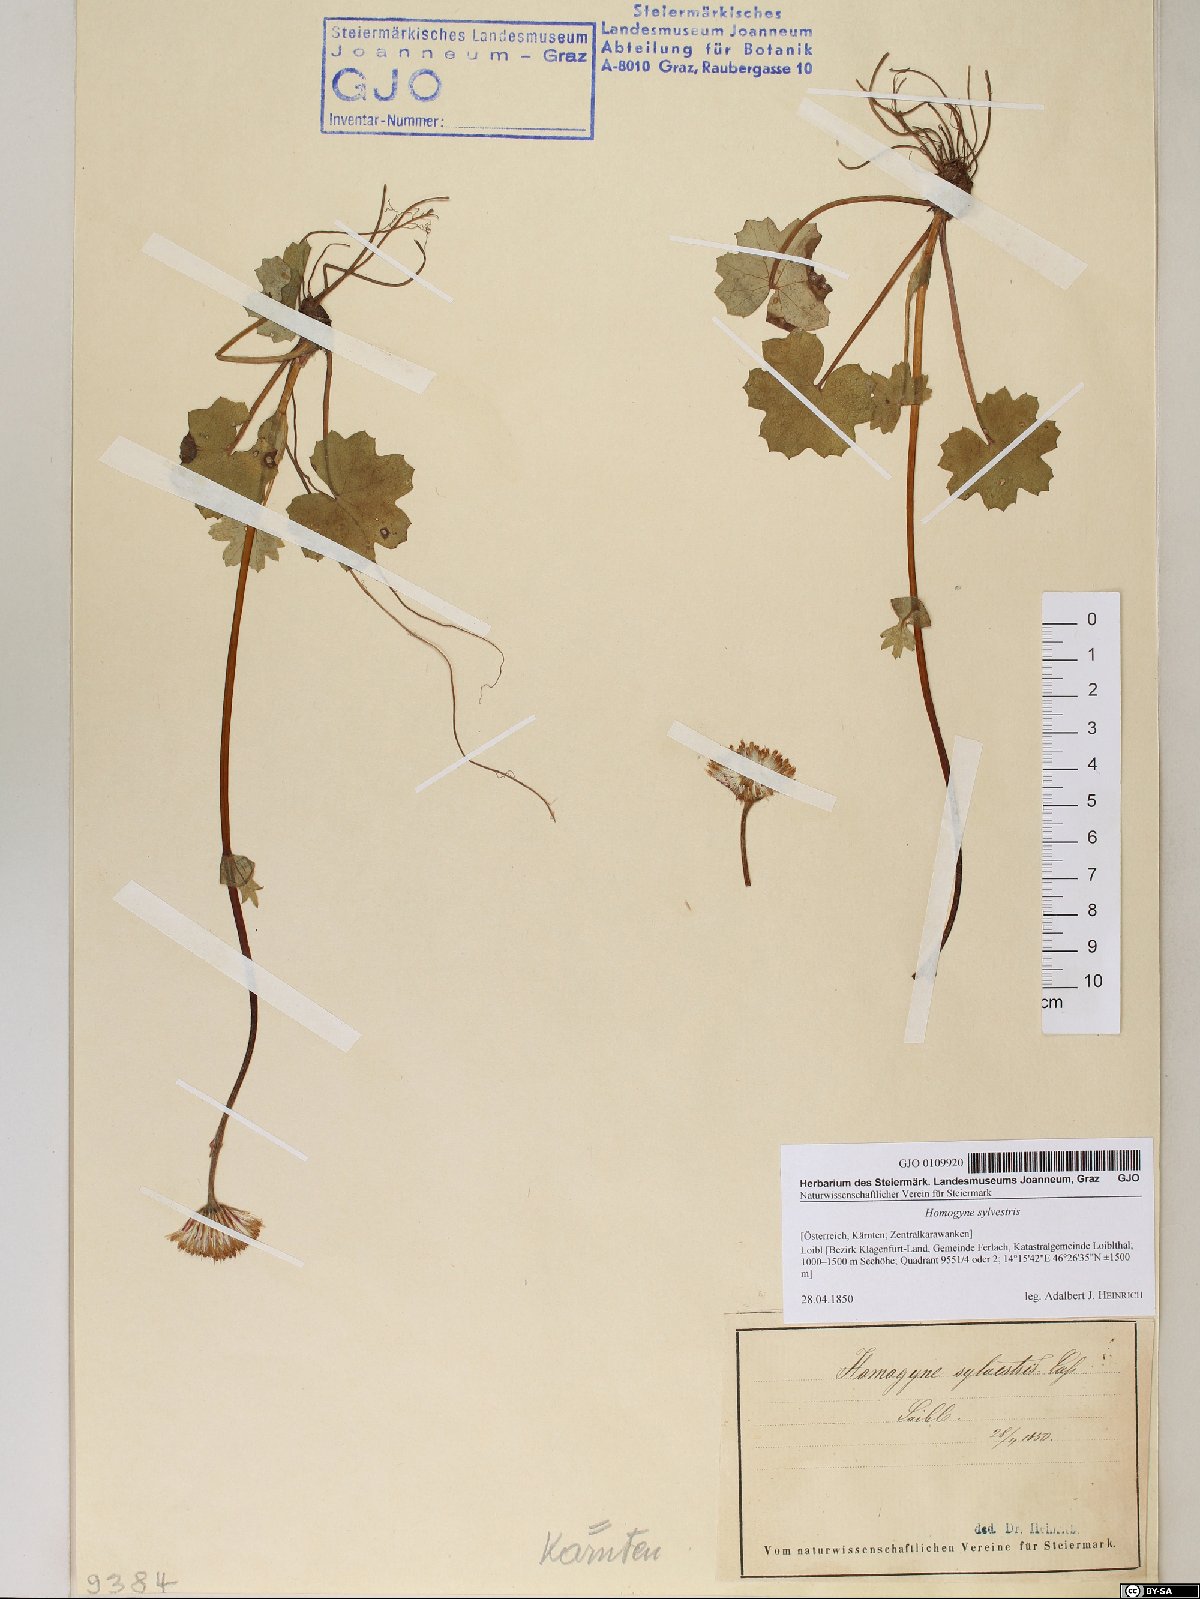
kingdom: Plantae
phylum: Tracheophyta
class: Magnoliopsida
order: Asterales
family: Asteraceae
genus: Homogyne
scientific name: Homogyne sylvestris
